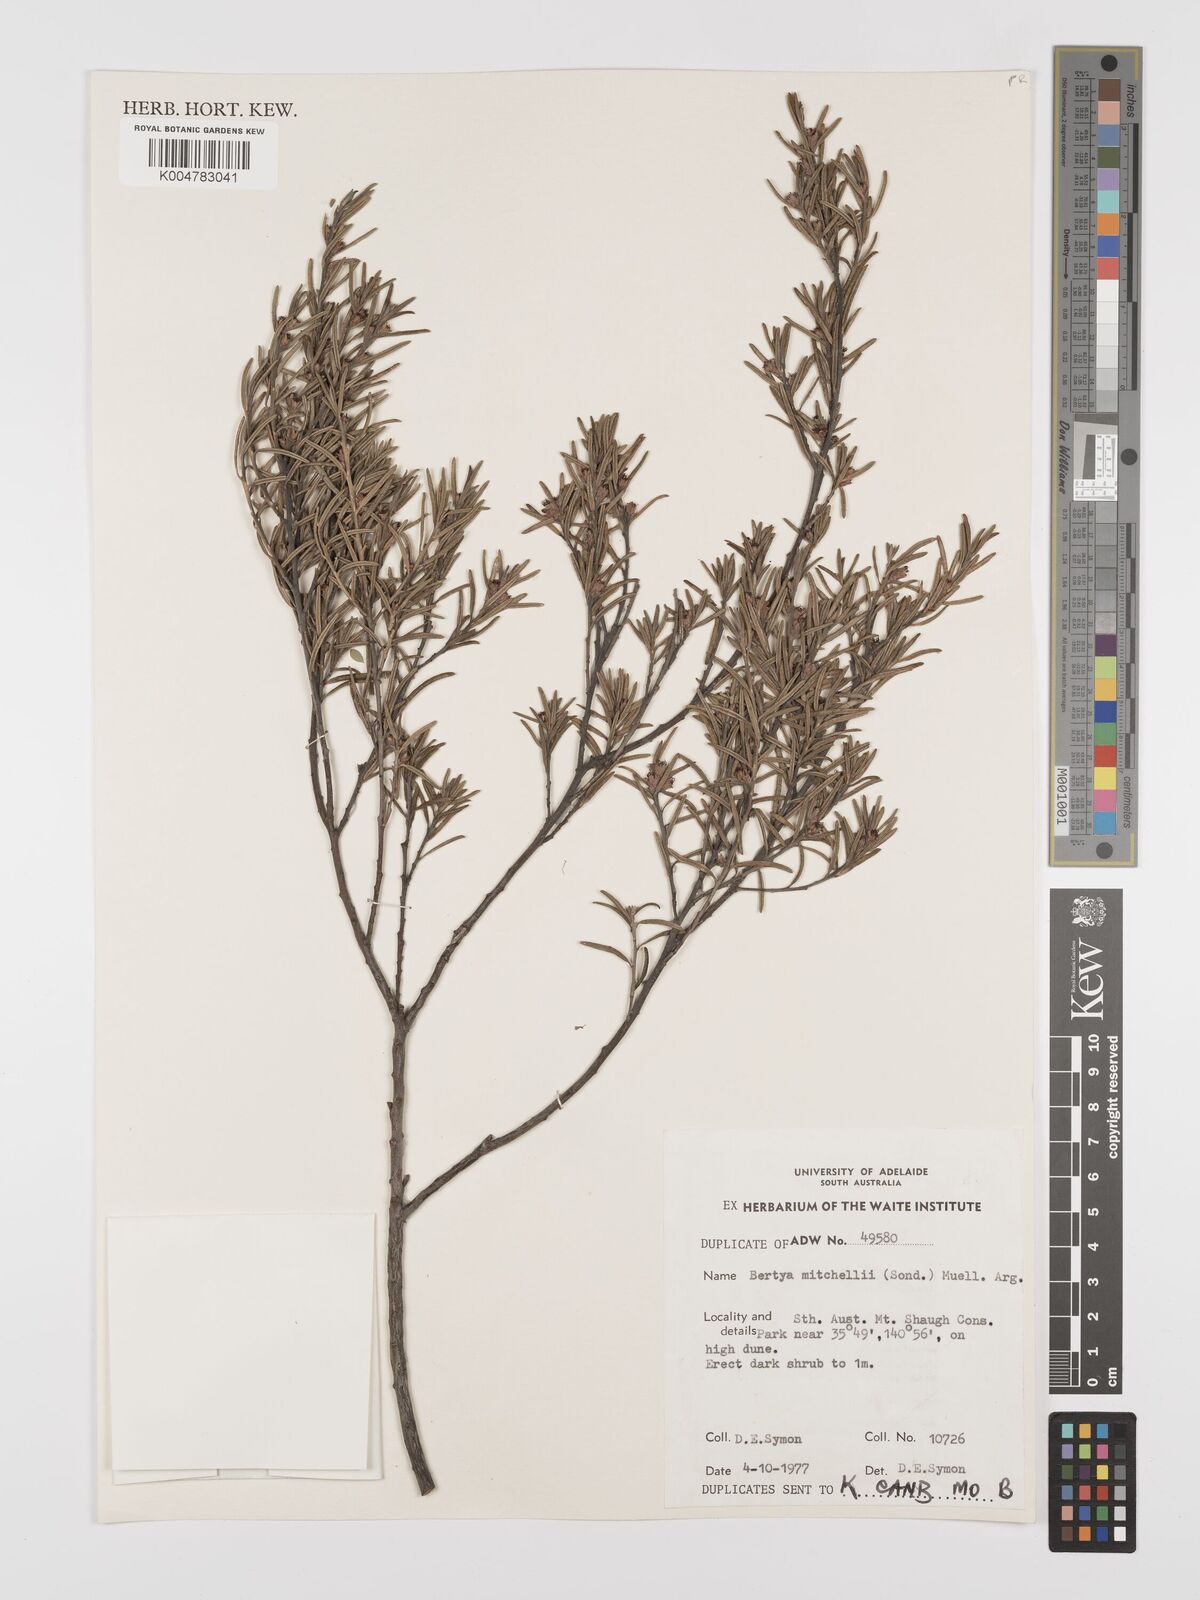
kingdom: Plantae
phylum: Tracheophyta
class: Magnoliopsida
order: Malpighiales
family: Euphorbiaceae
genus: Bertya
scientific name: Bertya oleifolia
